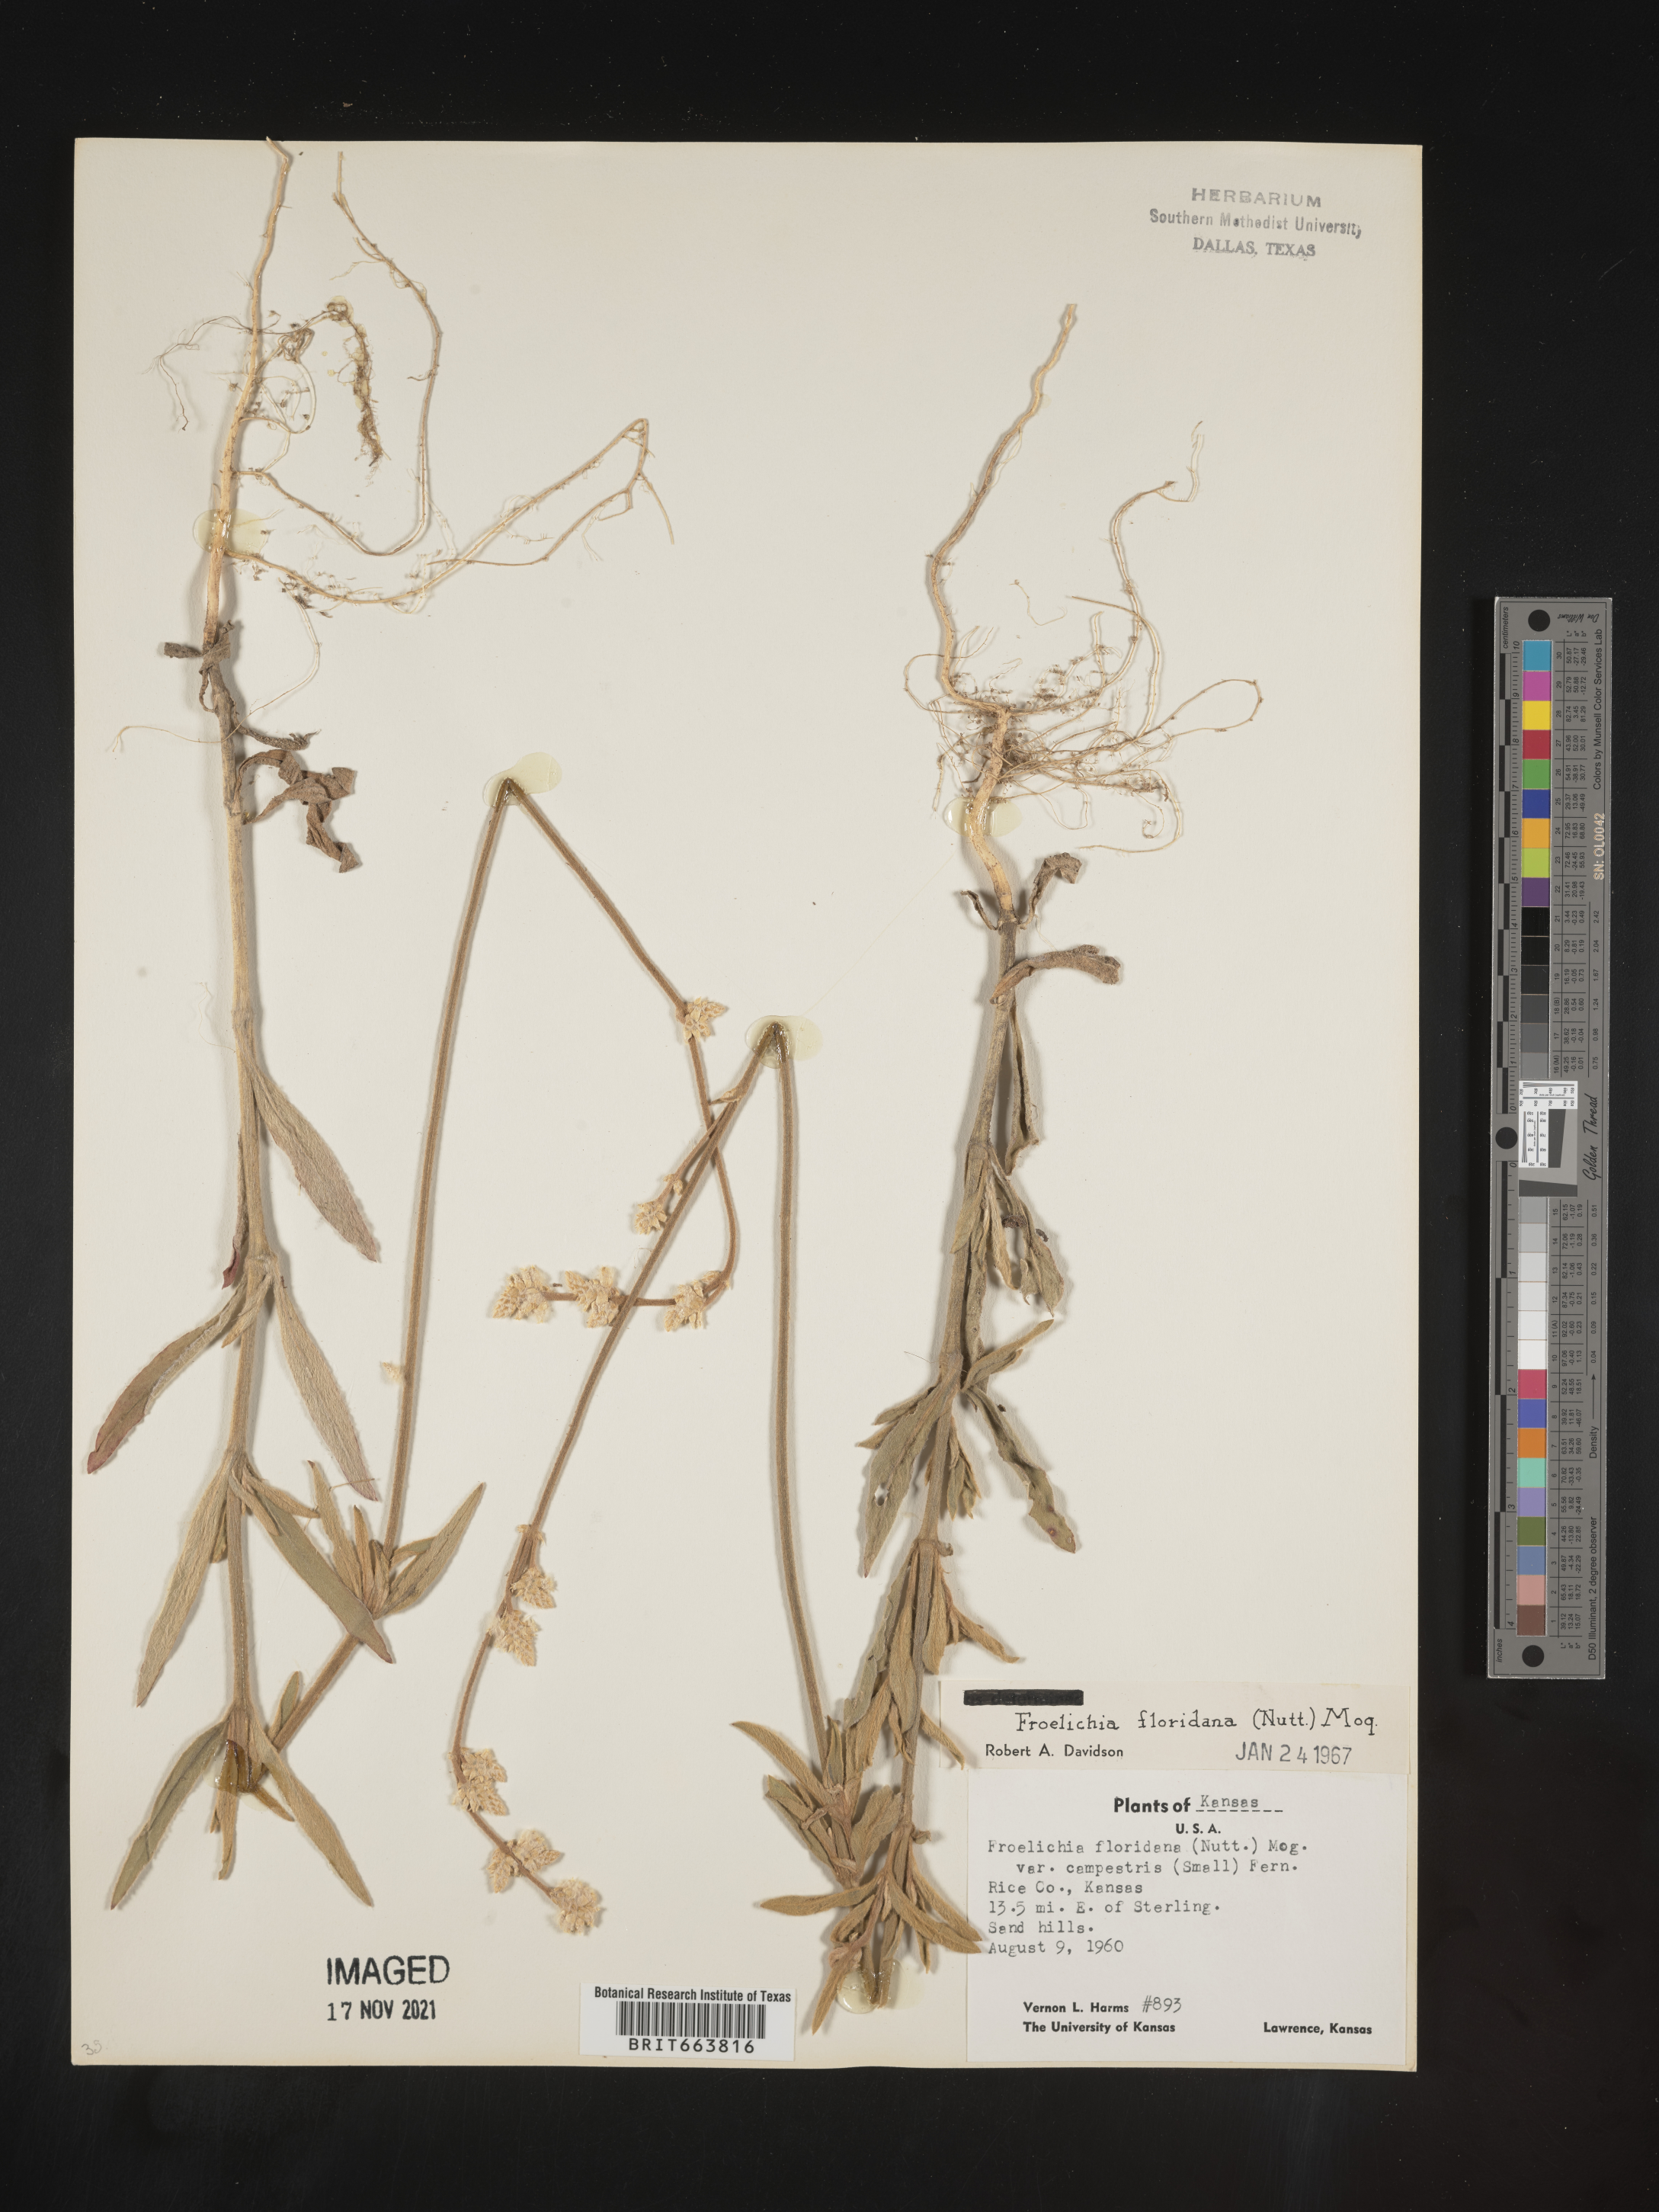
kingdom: Plantae
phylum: Tracheophyta
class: Magnoliopsida
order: Caryophyllales
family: Amaranthaceae
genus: Froelichia
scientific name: Froelichia floridana
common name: Florida snake-cotton
